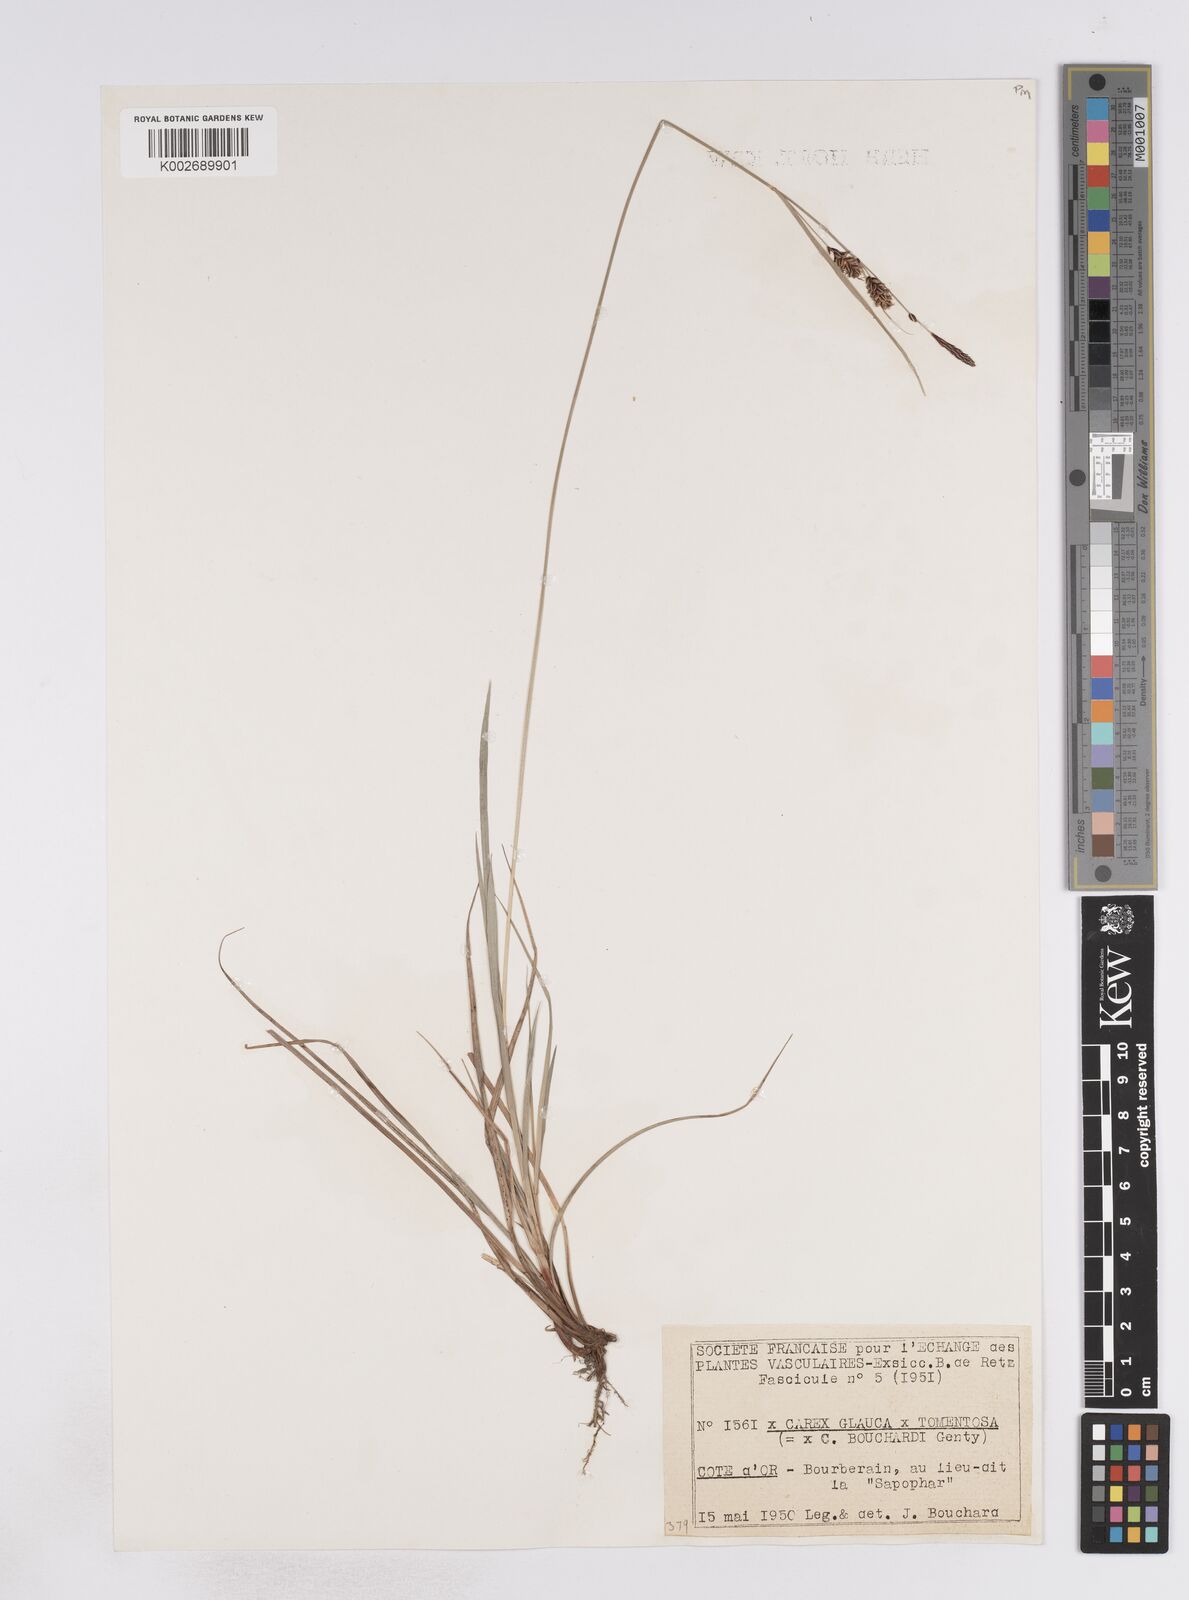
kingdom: Plantae
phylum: Tracheophyta
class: Liliopsida
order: Poales
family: Cyperaceae
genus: Carex
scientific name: Carex incurviformis
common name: Coastal sand sedge
